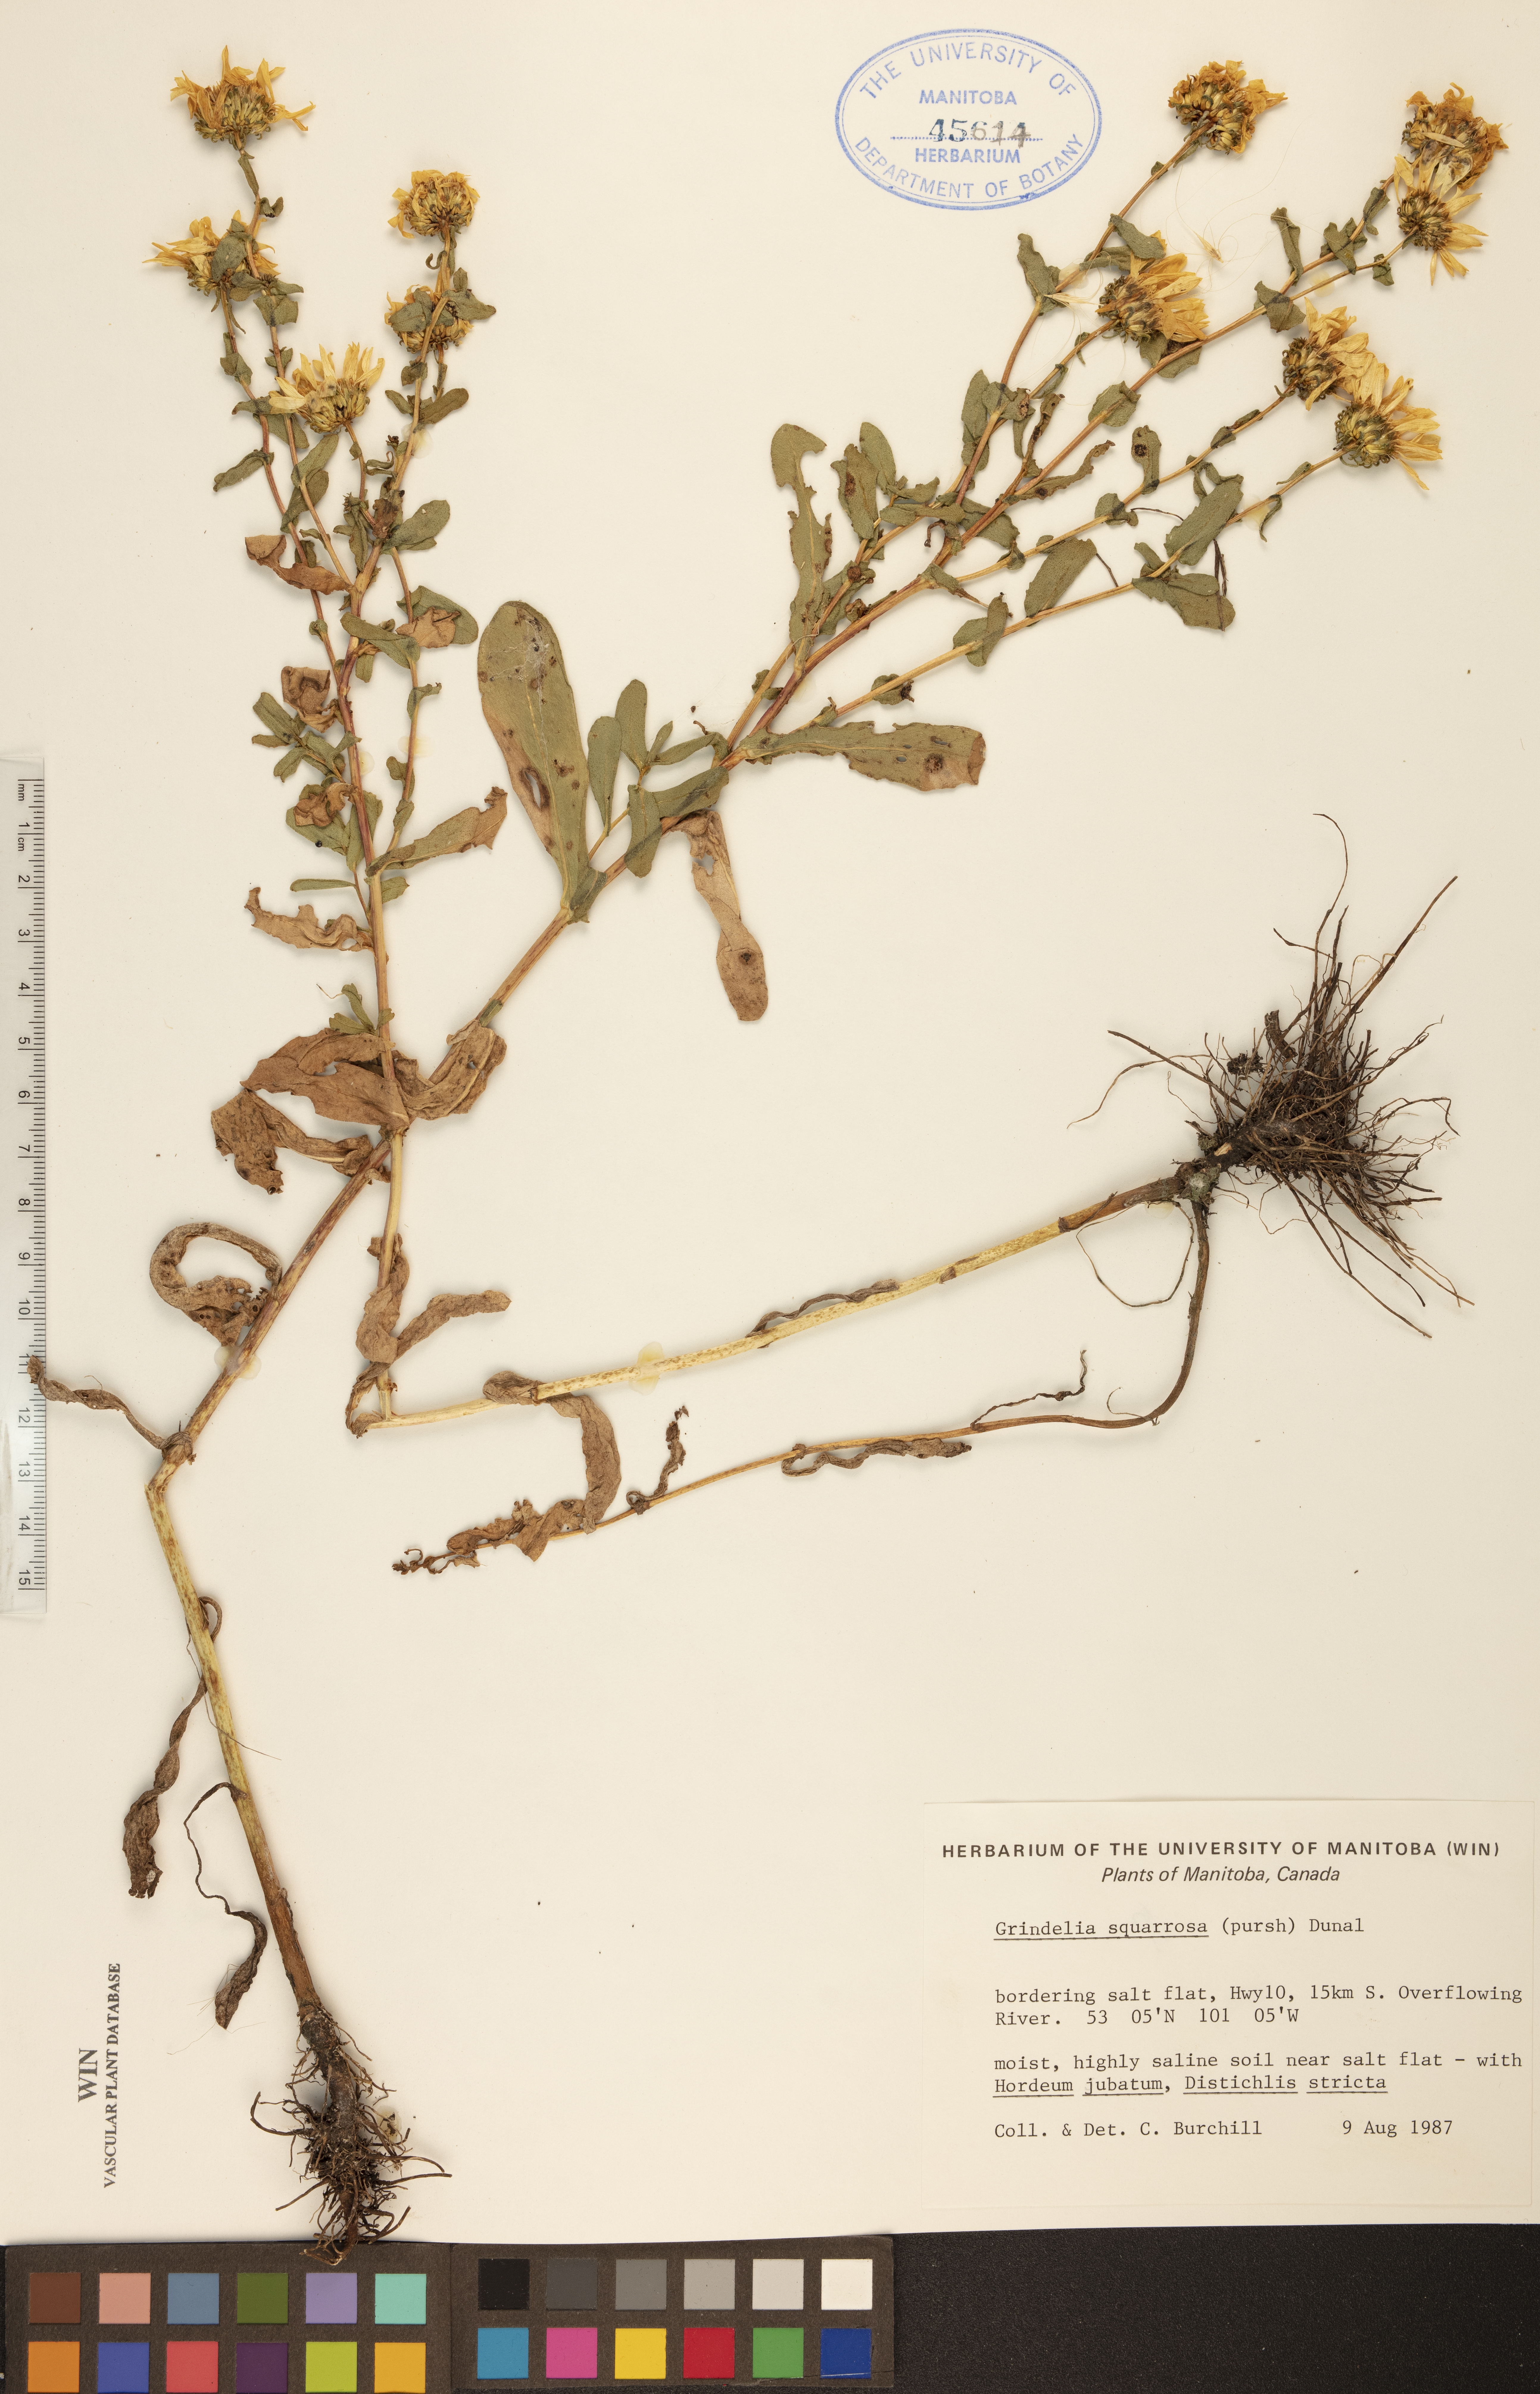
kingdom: Plantae
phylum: Tracheophyta
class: Magnoliopsida
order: Asterales
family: Asteraceae
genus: Grindelia
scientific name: Grindelia squarrosa
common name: Curly-cup gumweed
